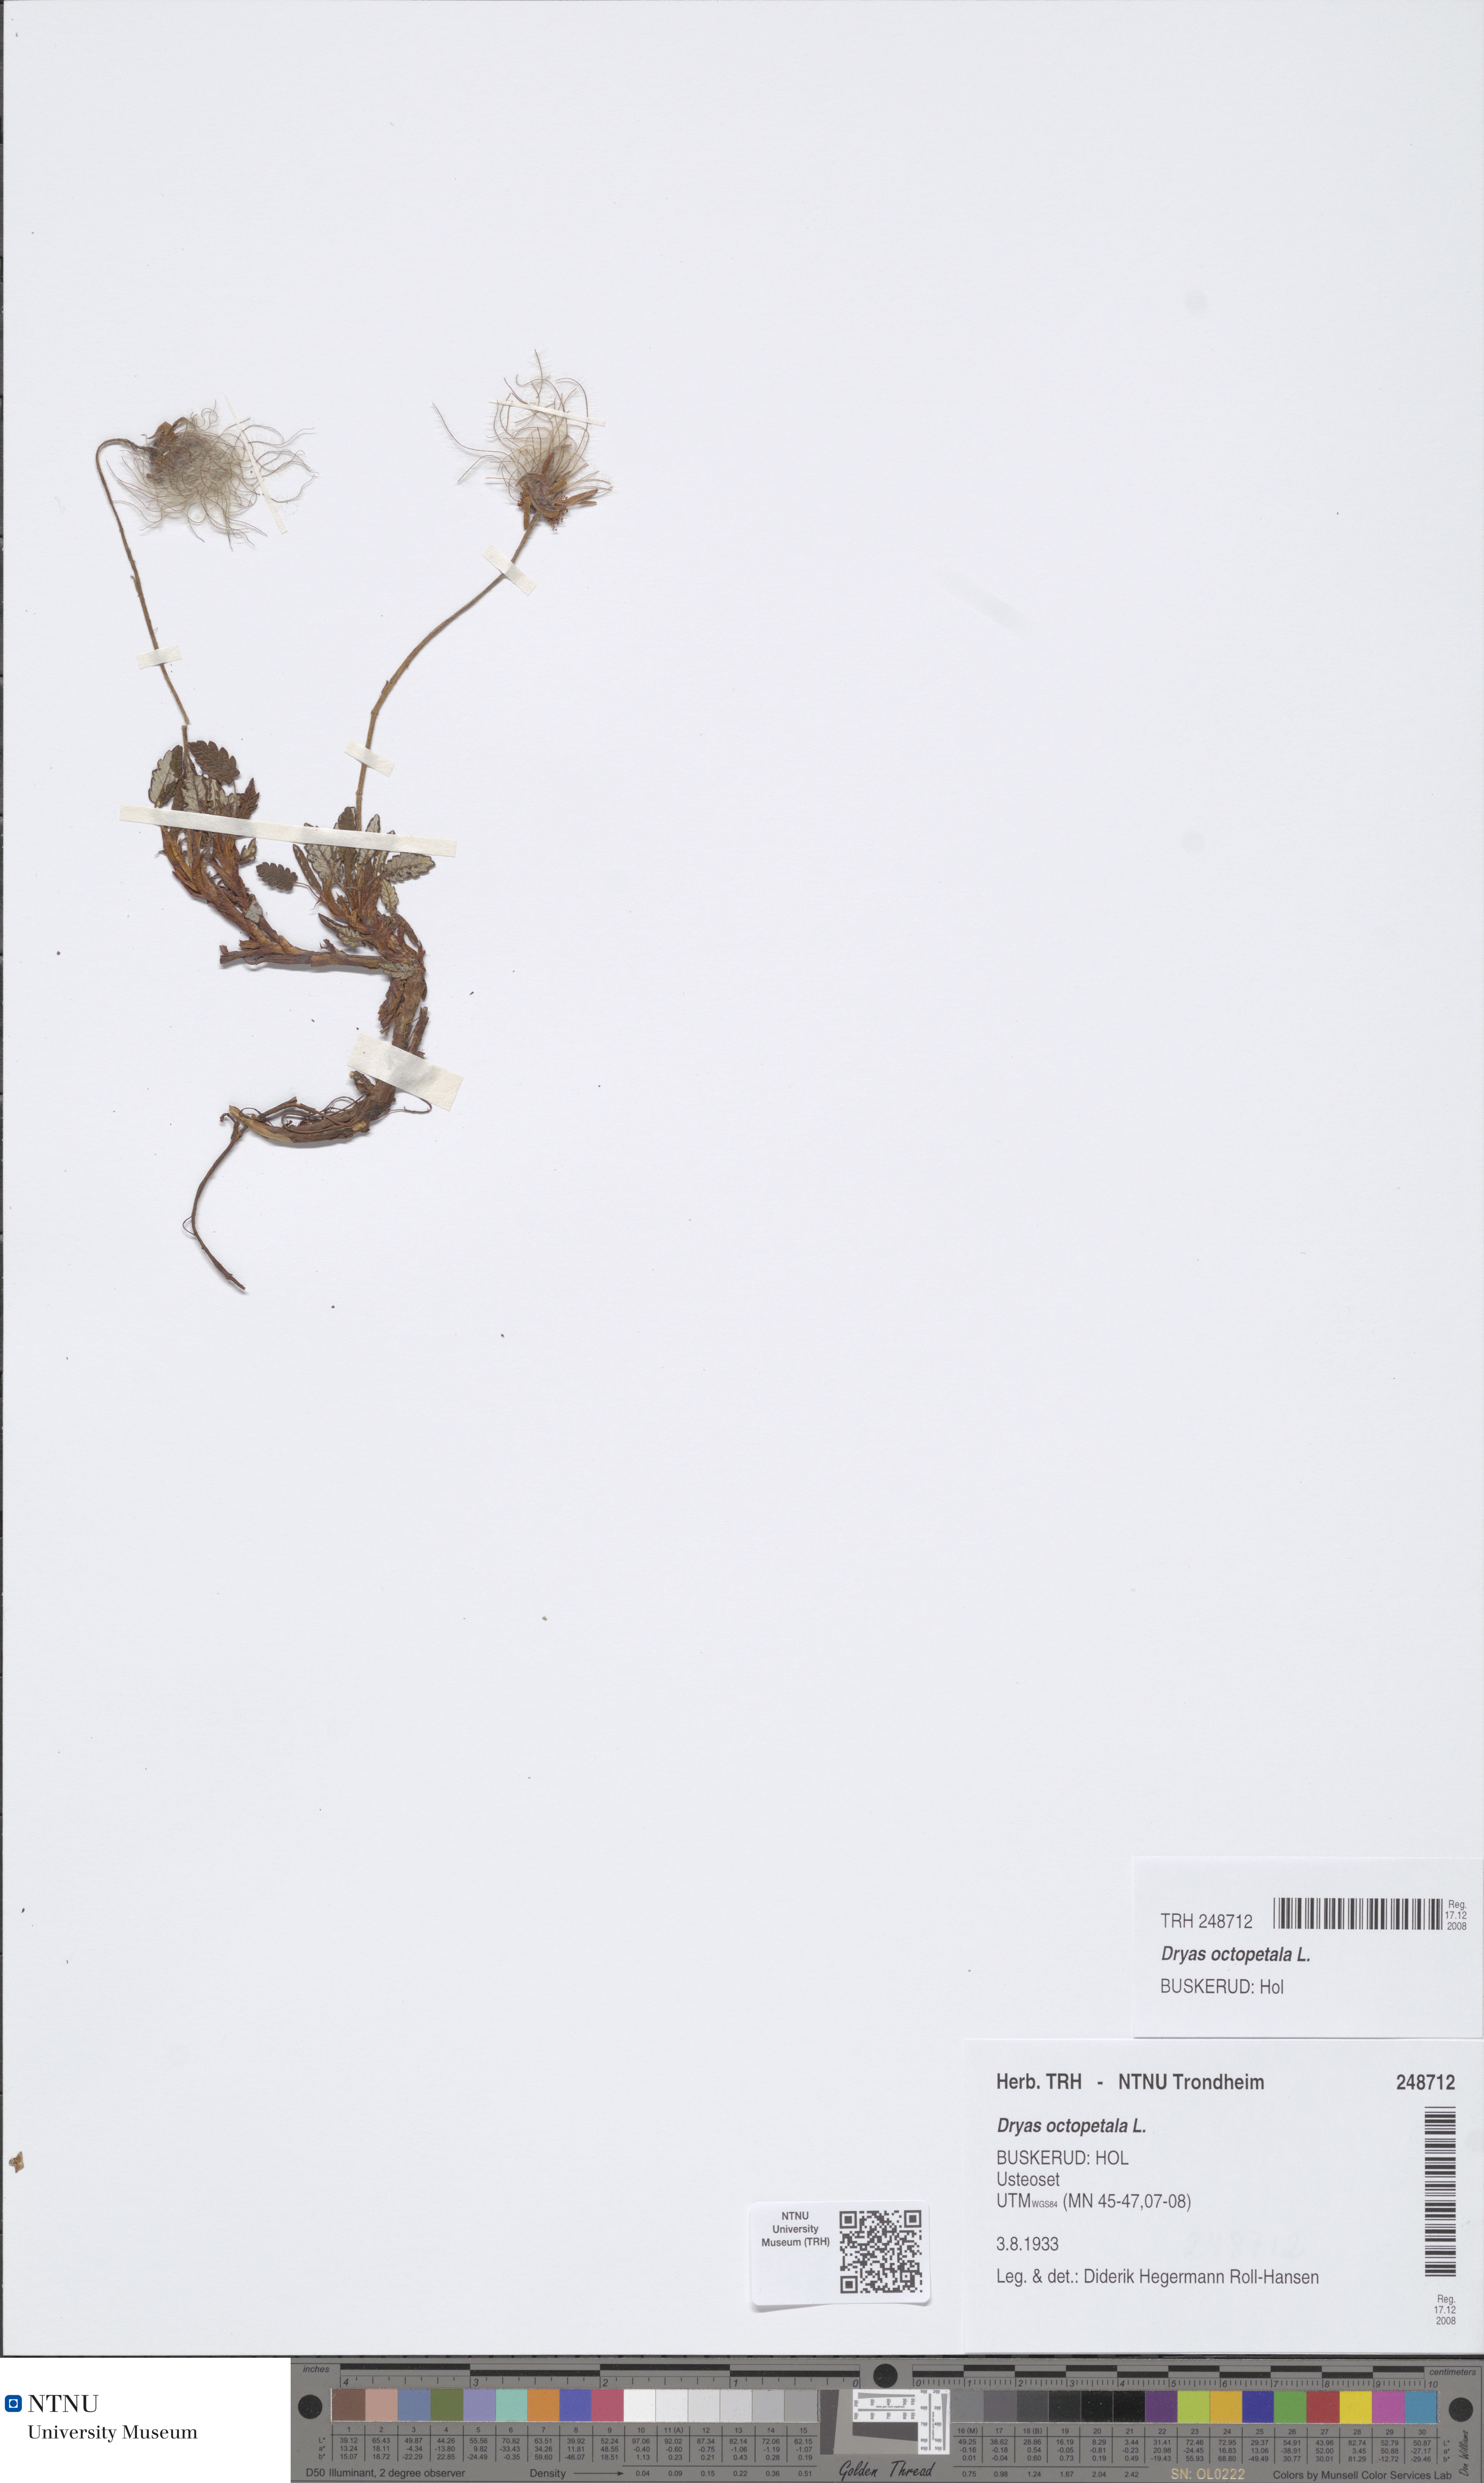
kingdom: Plantae
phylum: Tracheophyta
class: Magnoliopsida
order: Rosales
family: Rosaceae
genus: Dryas
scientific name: Dryas octopetala
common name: Eight-petal mountain-avens
